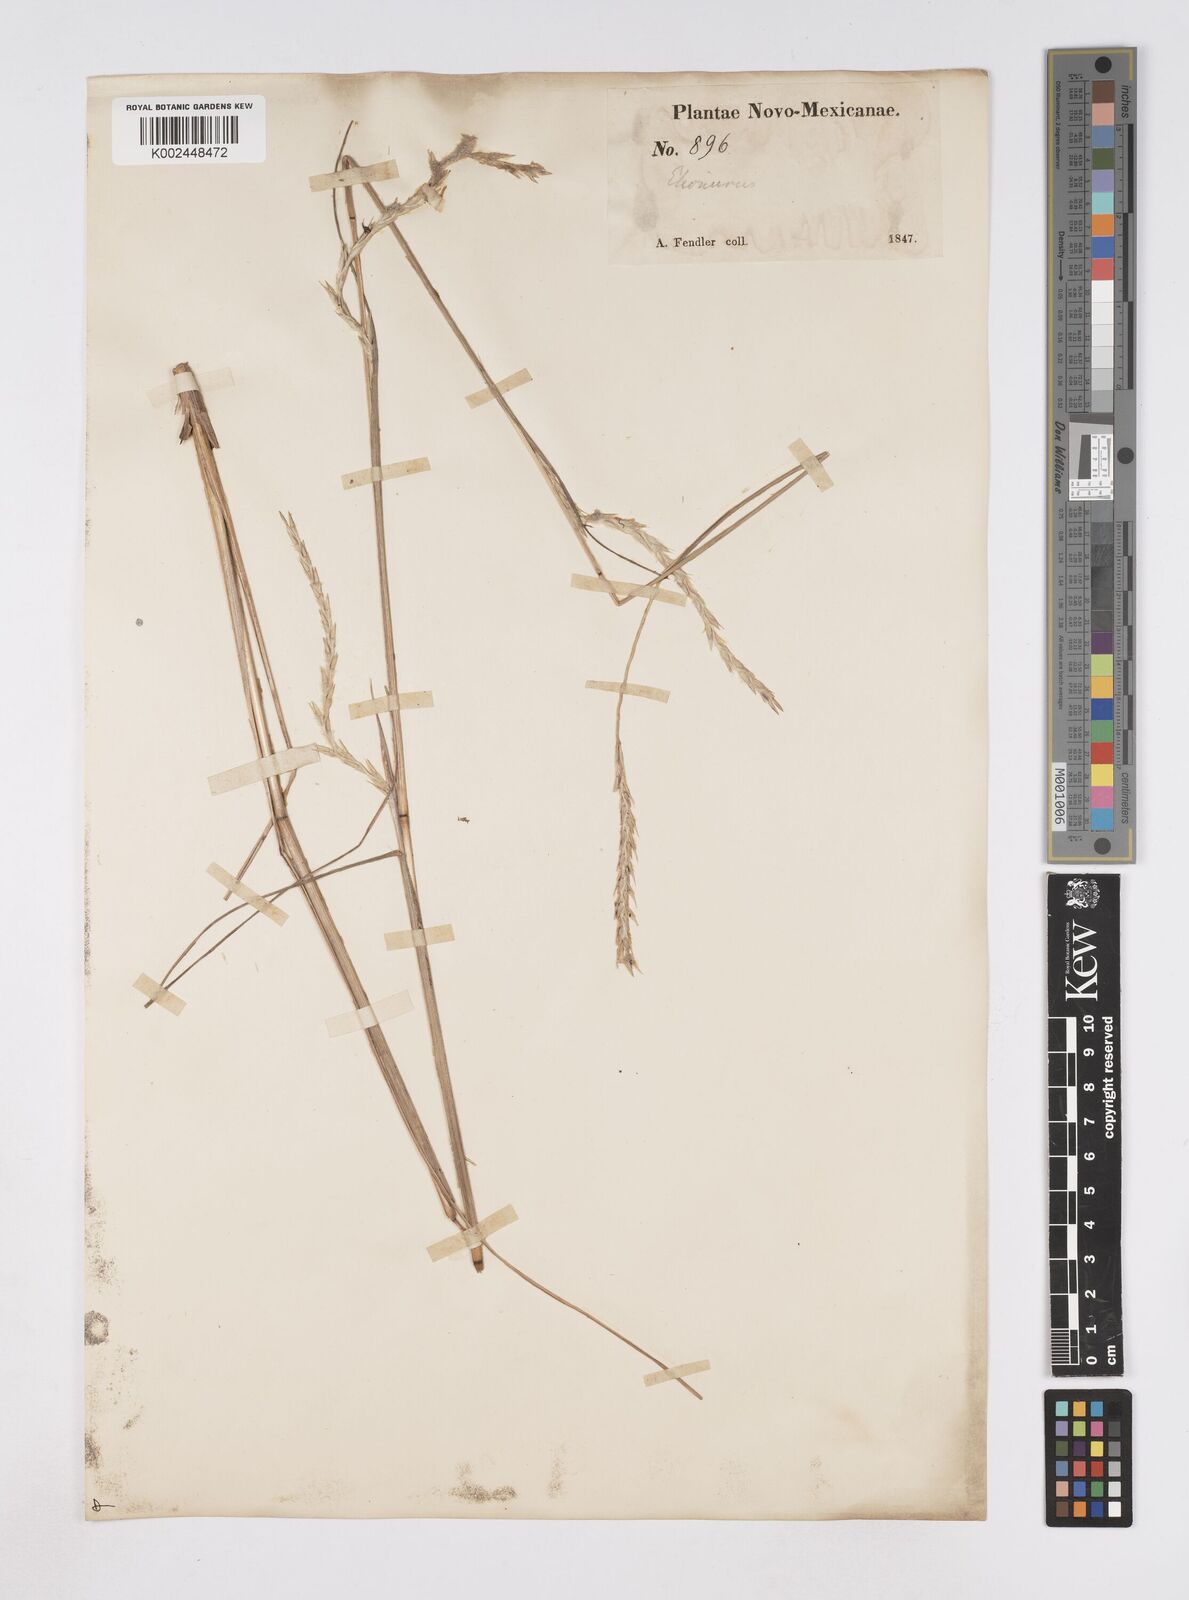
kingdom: Plantae
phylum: Tracheophyta
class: Liliopsida
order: Poales
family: Poaceae
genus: Elionurus
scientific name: Elionurus
